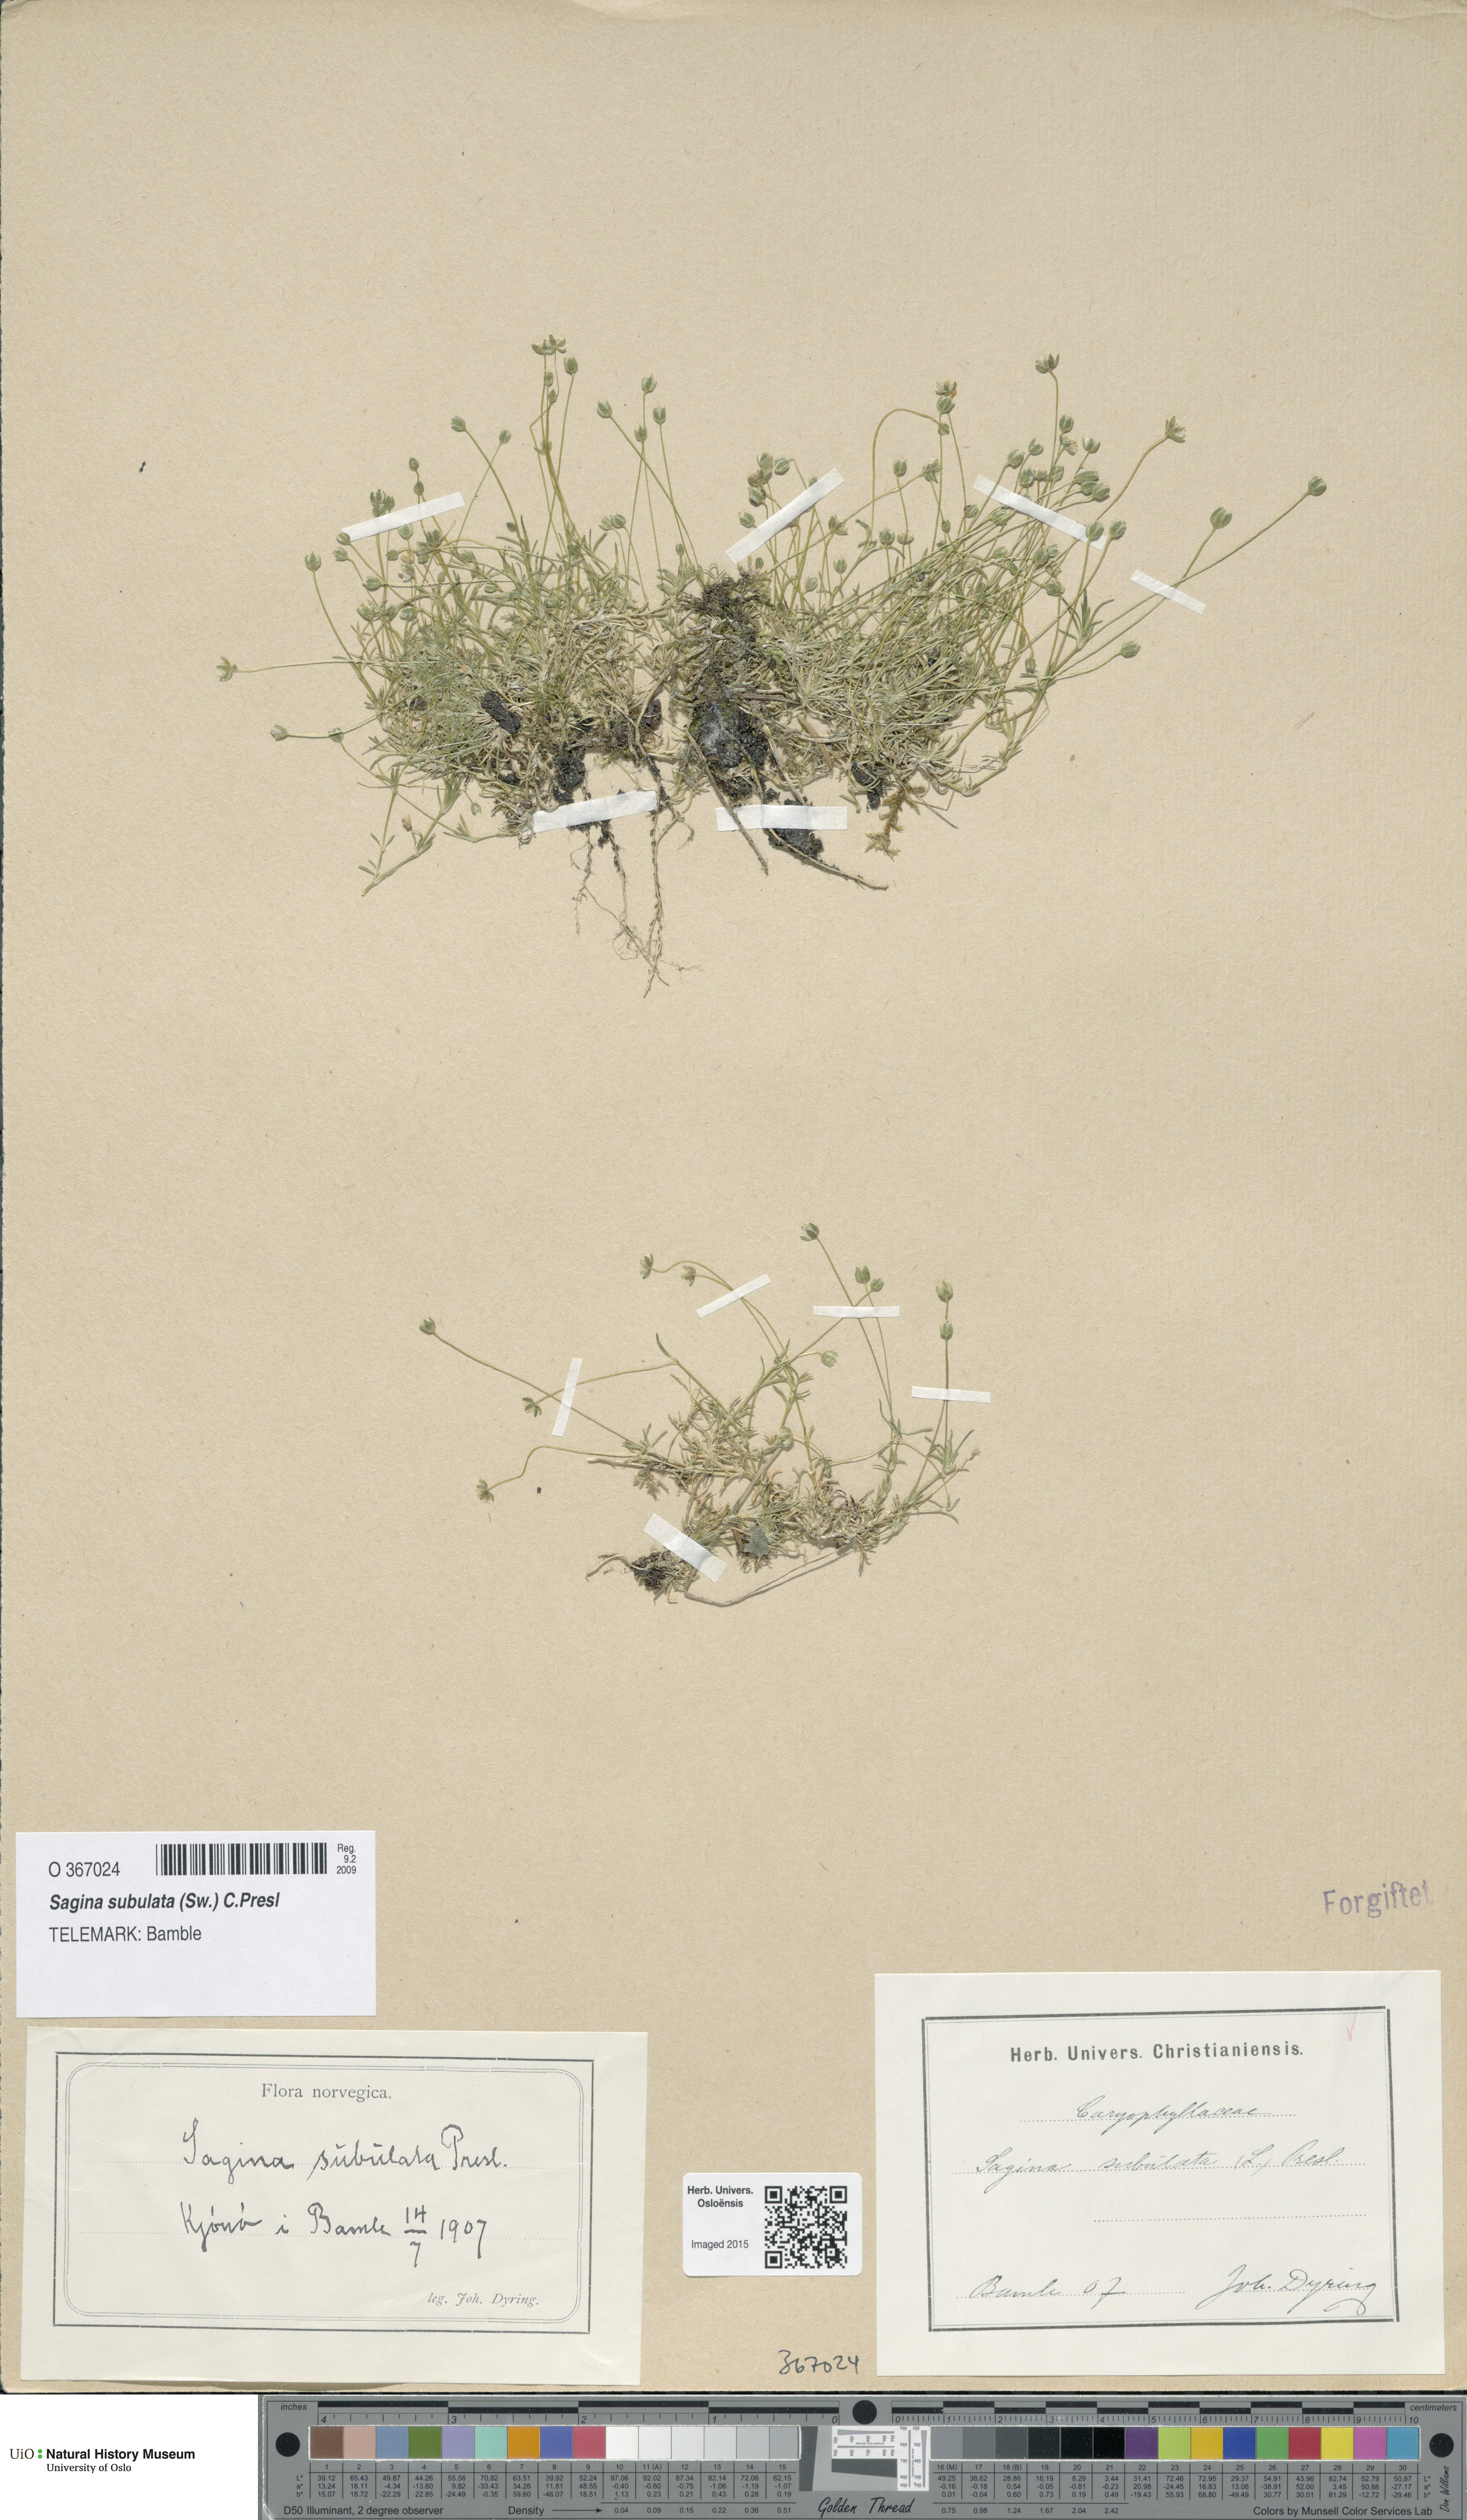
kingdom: Plantae
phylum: Tracheophyta
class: Magnoliopsida
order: Caryophyllales
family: Caryophyllaceae
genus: Sagina
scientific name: Sagina alexandrae
